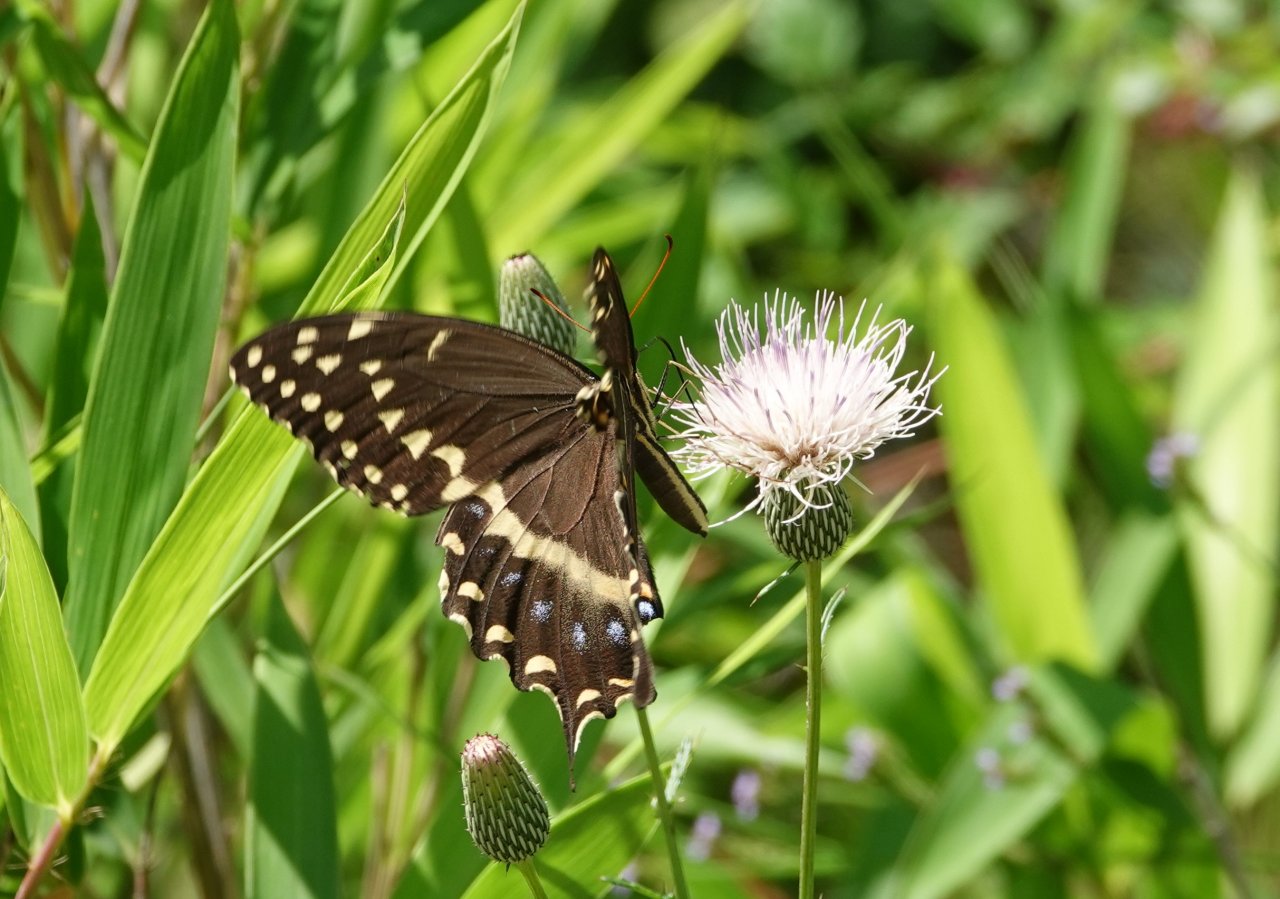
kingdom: Animalia
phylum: Arthropoda
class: Insecta
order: Lepidoptera
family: Papilionidae
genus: Pterourus
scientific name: Pterourus palamedes
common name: Palamedes Swallowtail
